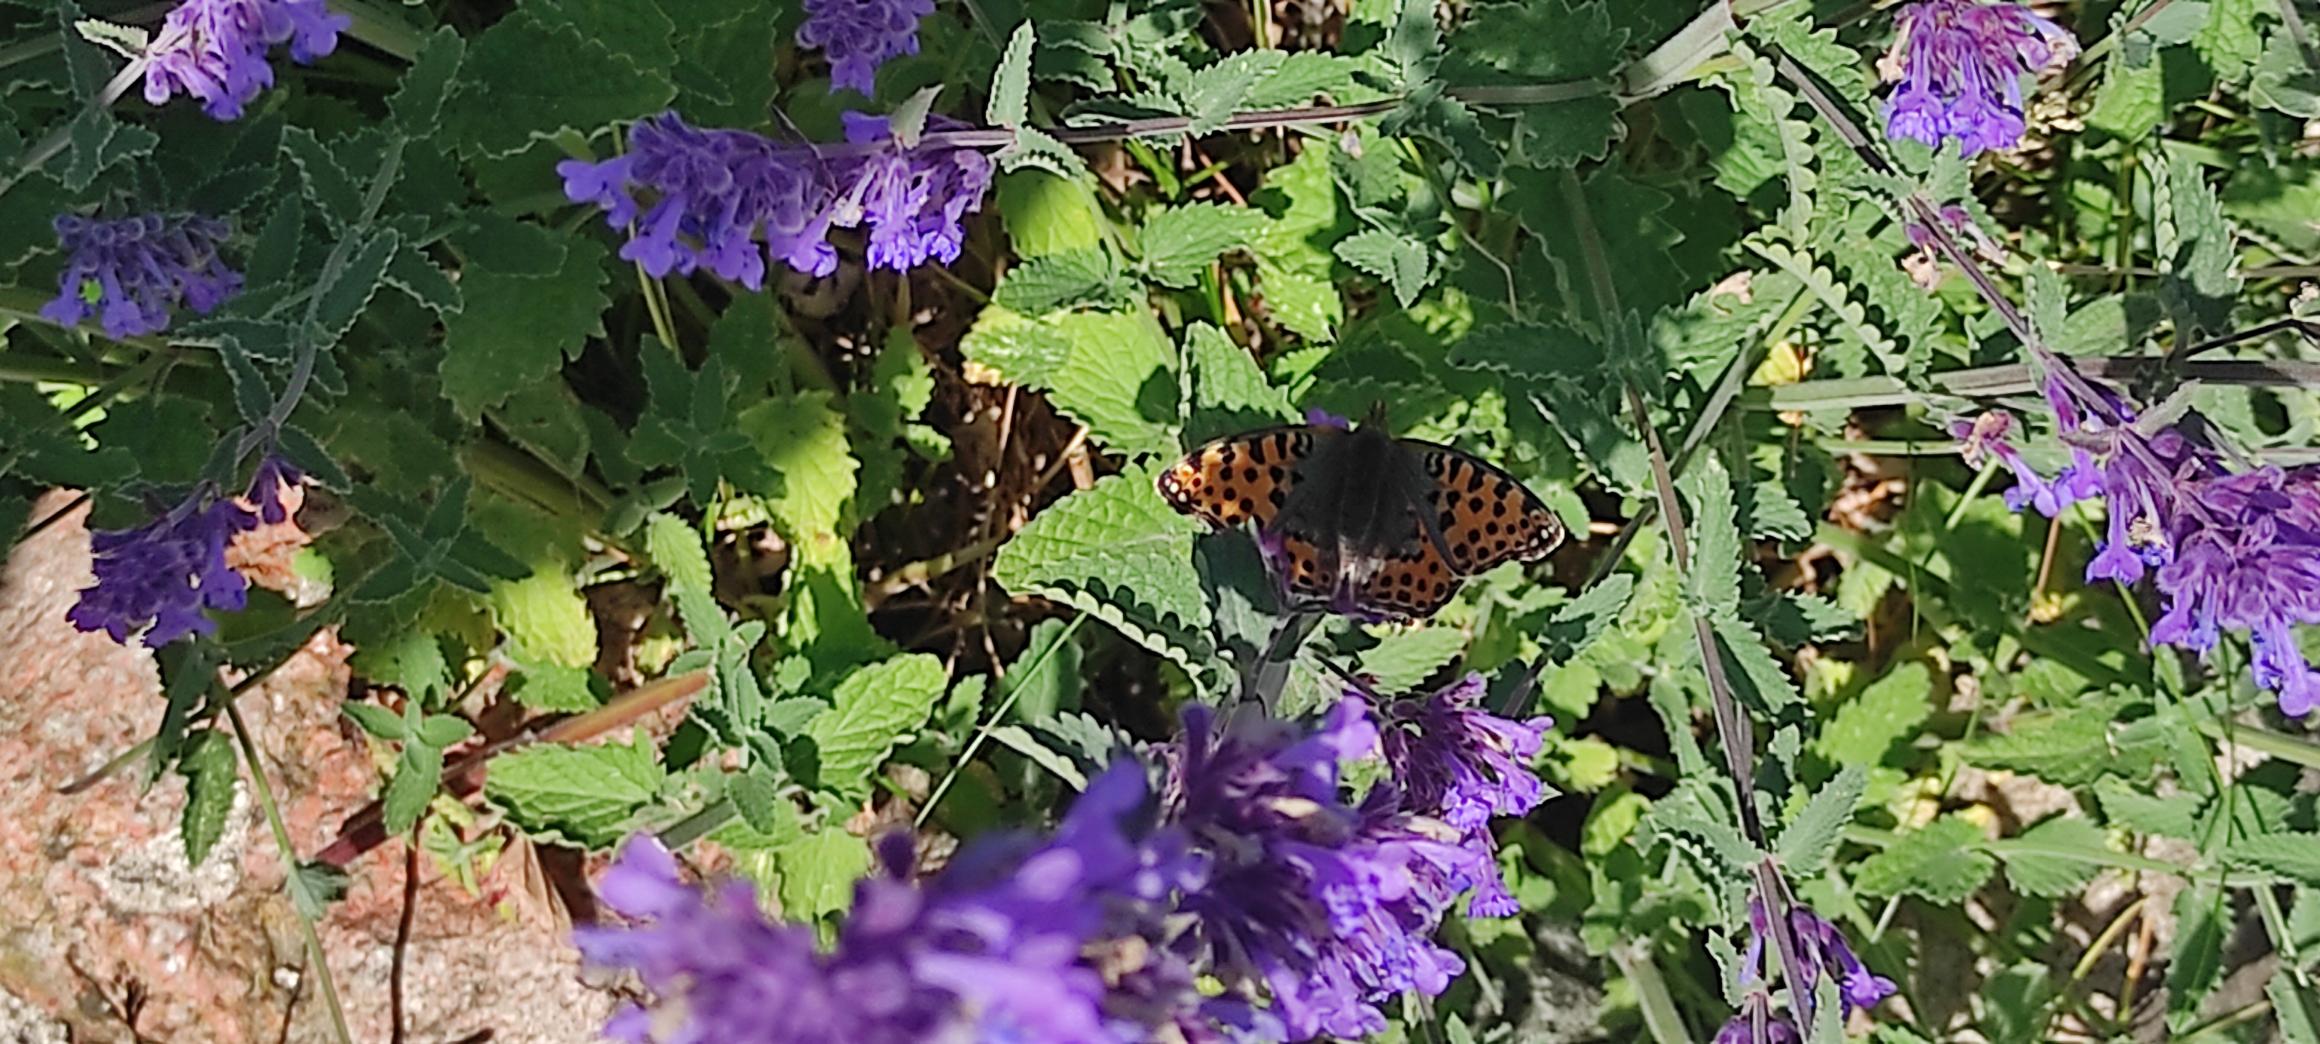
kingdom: Animalia
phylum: Arthropoda
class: Insecta
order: Lepidoptera
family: Nymphalidae
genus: Issoria
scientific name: Issoria lathonia
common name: Storplettet perlemorsommerfugl
